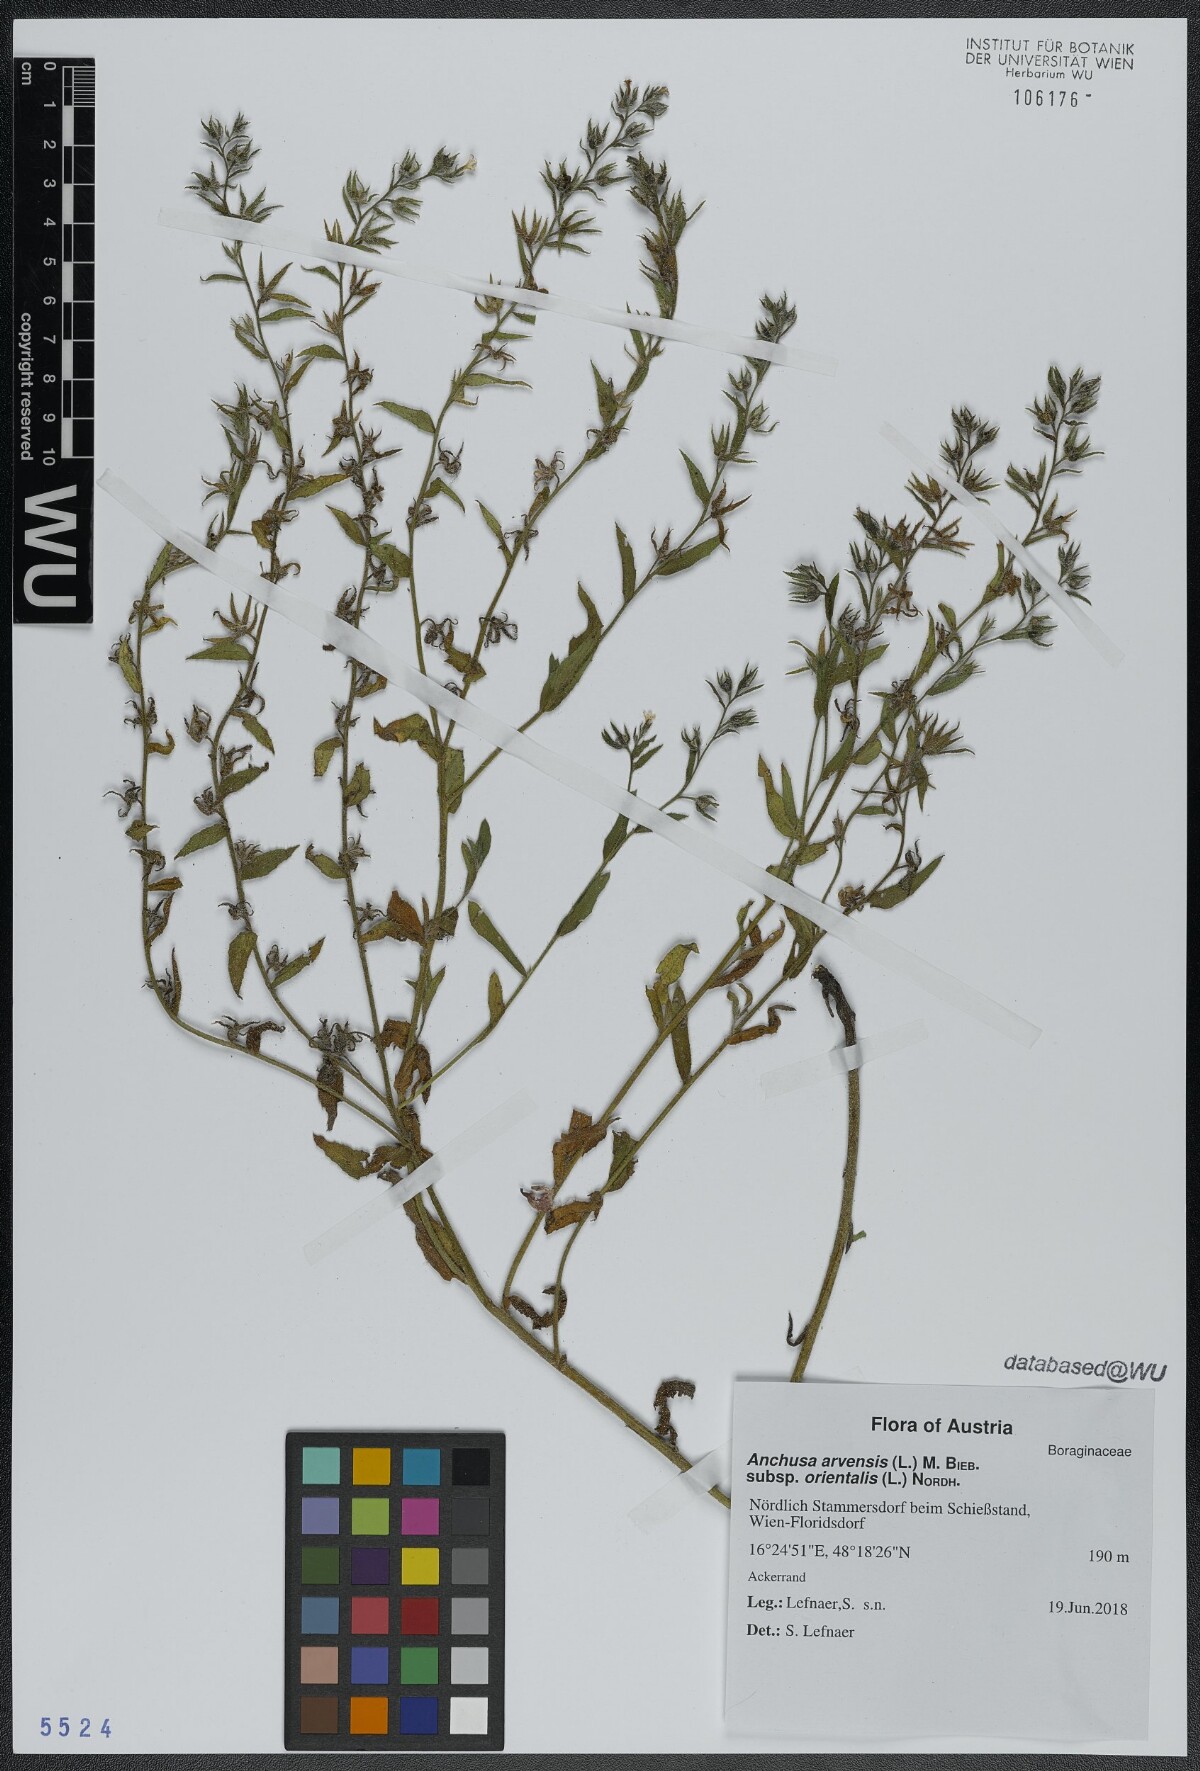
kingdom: Plantae
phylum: Tracheophyta
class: Magnoliopsida
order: Boraginales
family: Boraginaceae
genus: Lycopsis
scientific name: Lycopsis arvensis
